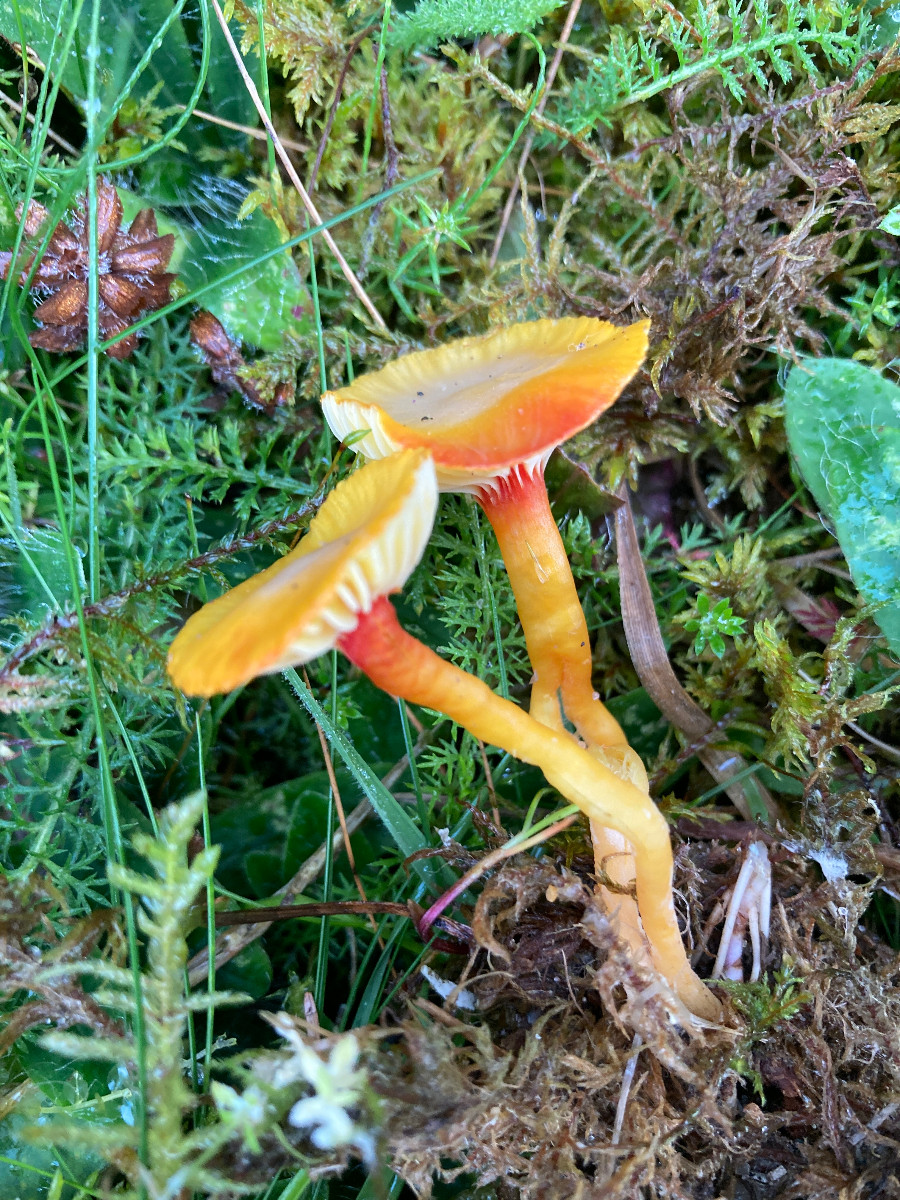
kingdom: Fungi
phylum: Basidiomycota
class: Agaricomycetes
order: Agaricales
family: Hygrophoraceae
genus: Hygrocybe
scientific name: Hygrocybe insipida
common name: liden vokshat
